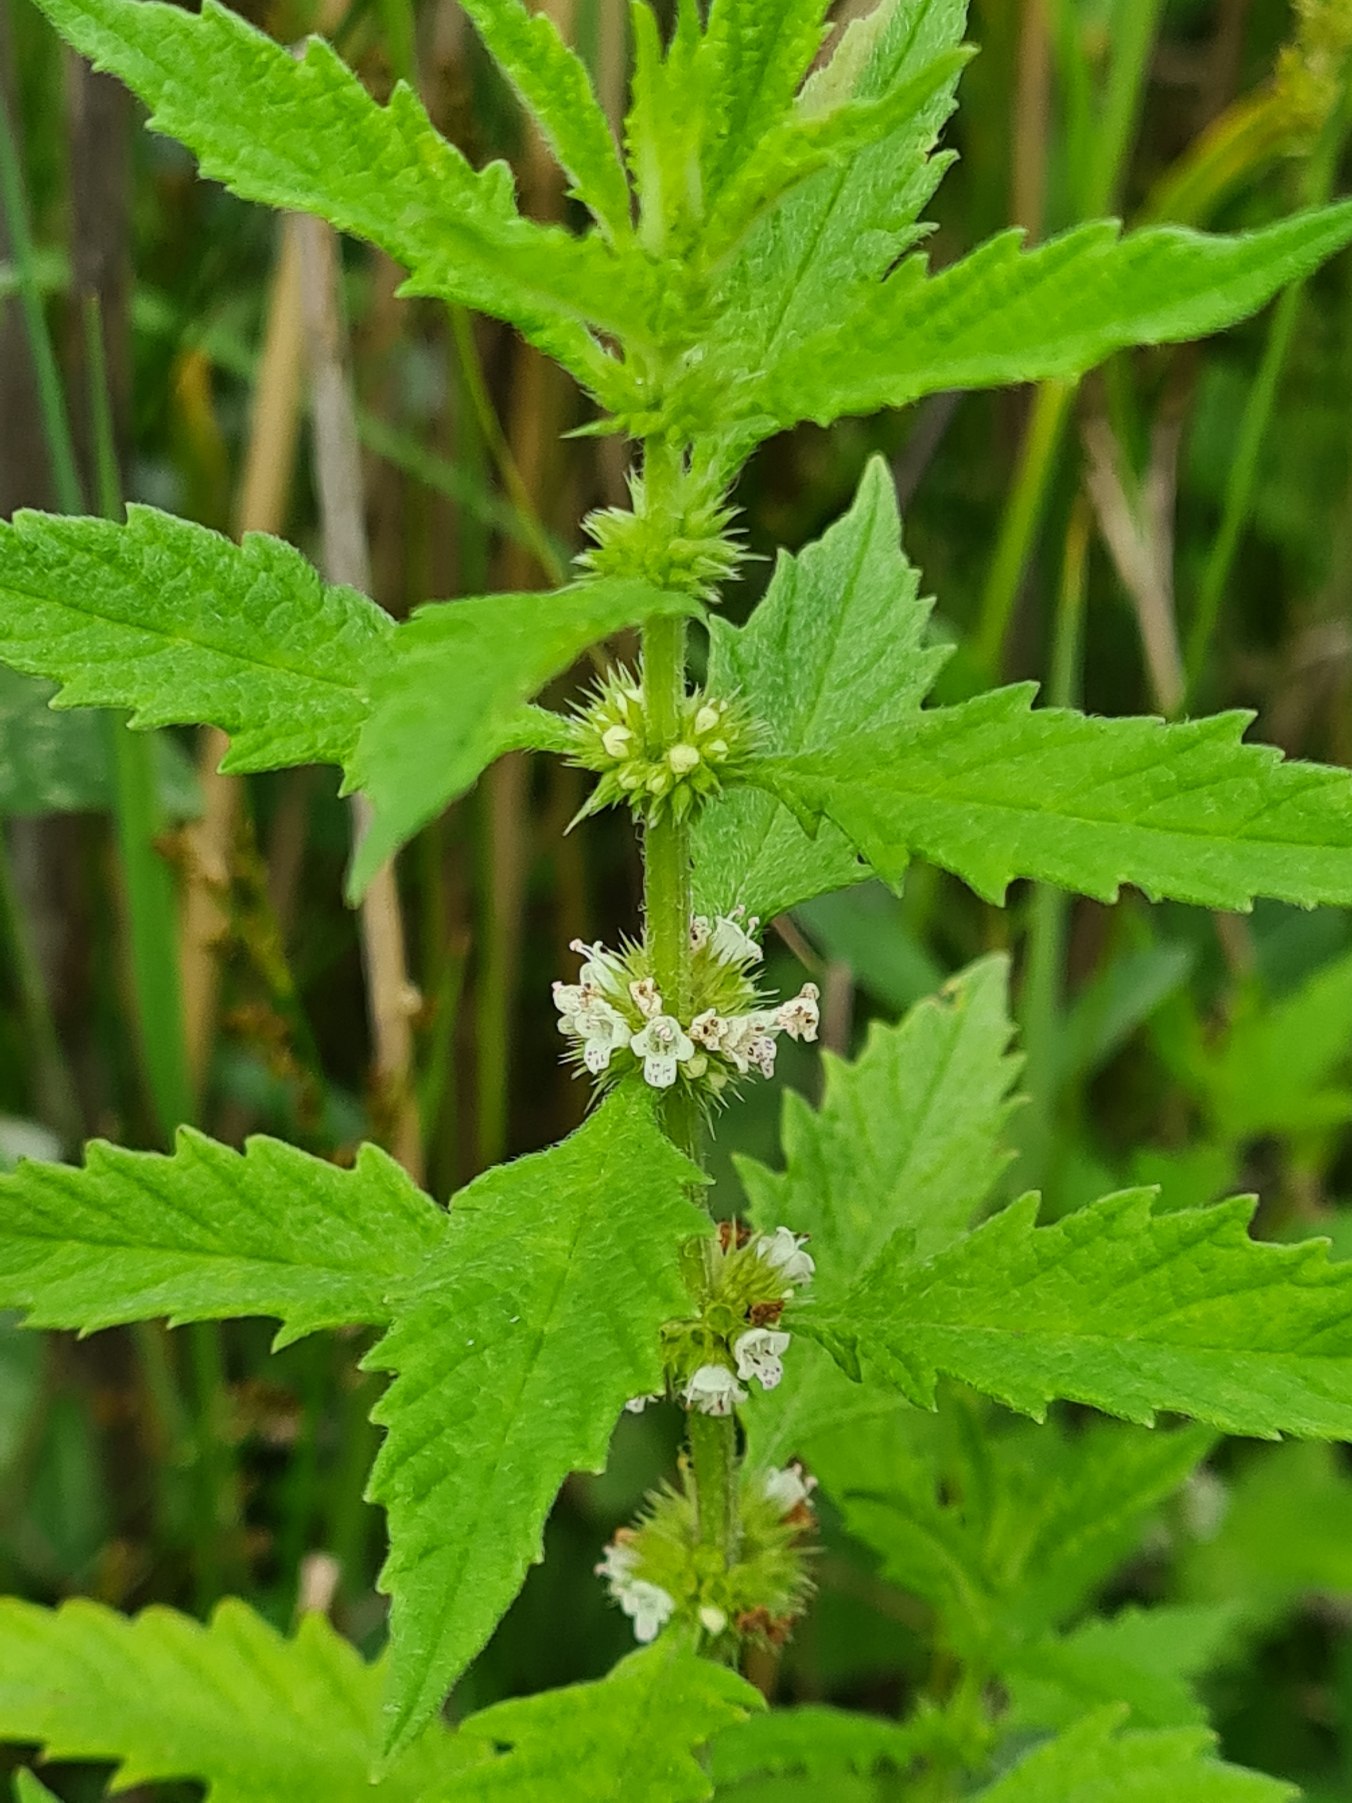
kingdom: Plantae
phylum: Tracheophyta
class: Magnoliopsida
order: Lamiales
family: Lamiaceae
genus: Lycopus
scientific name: Lycopus europaeus
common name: Sværtevæld
